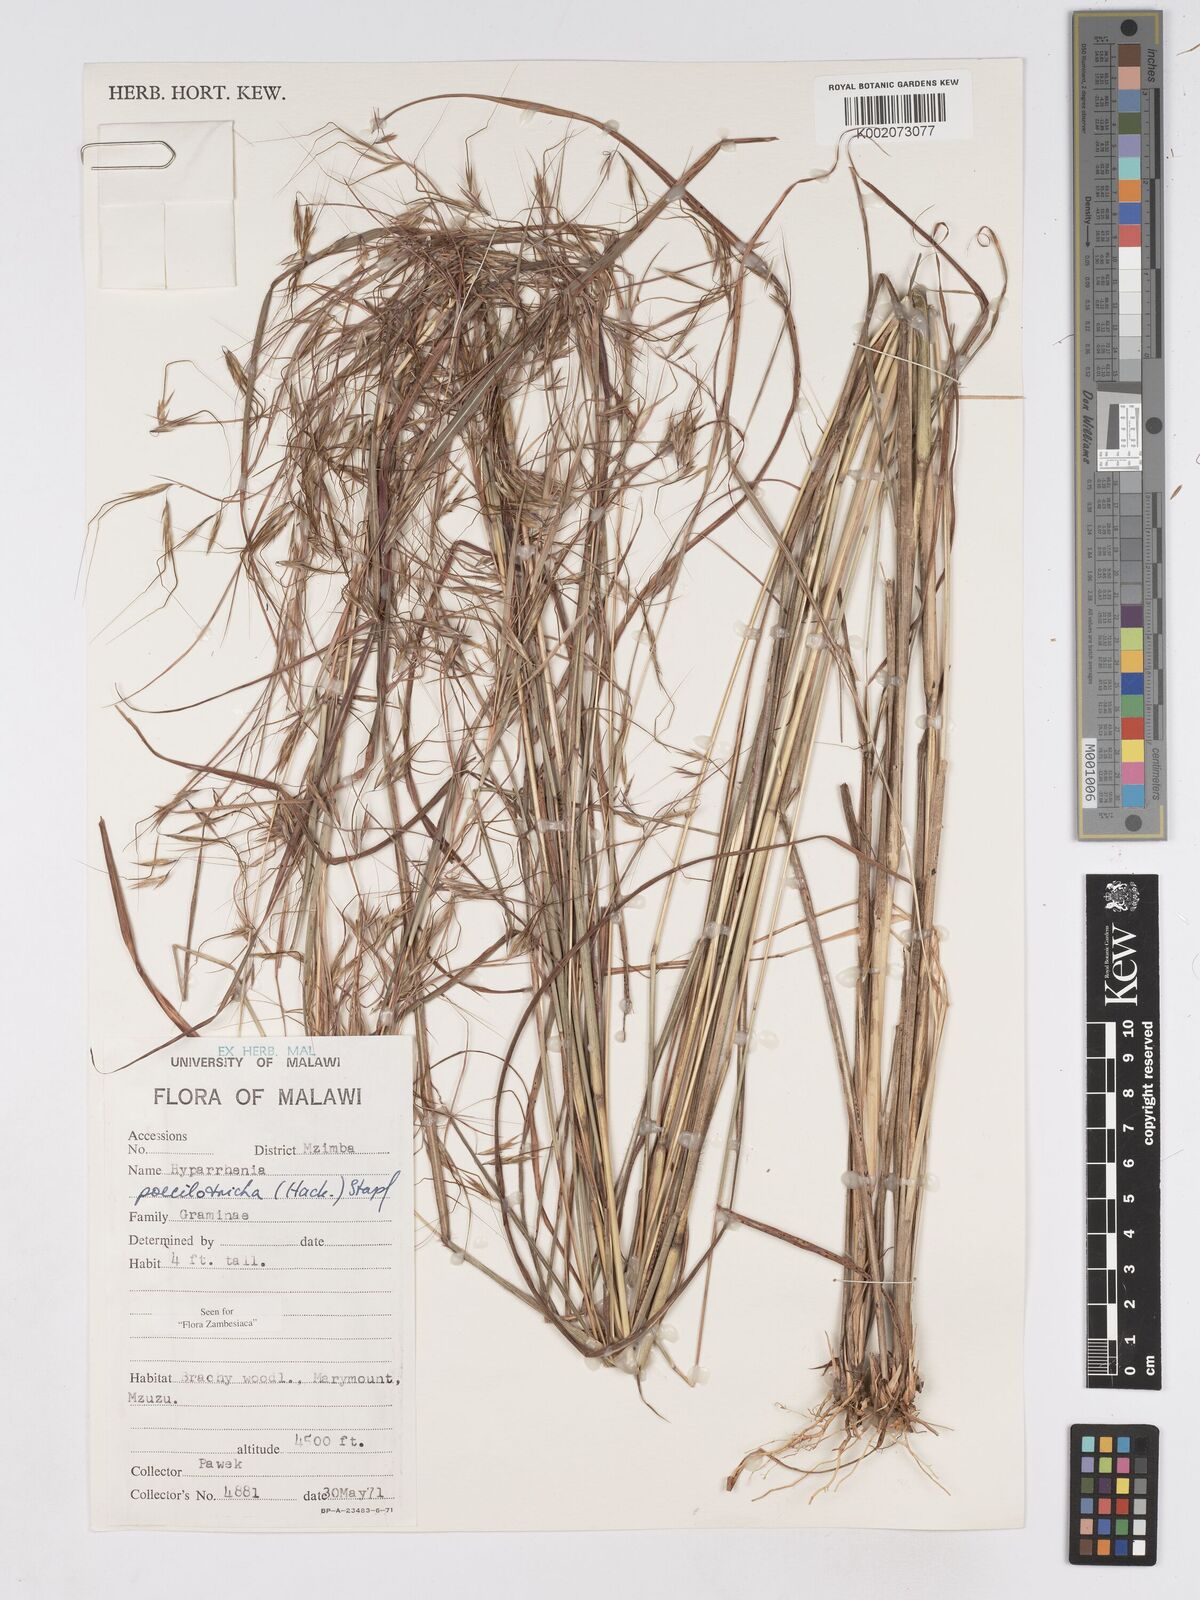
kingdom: Plantae
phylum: Tracheophyta
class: Liliopsida
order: Poales
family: Poaceae
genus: Hyparrhenia
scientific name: Hyparrhenia poecilotricha
